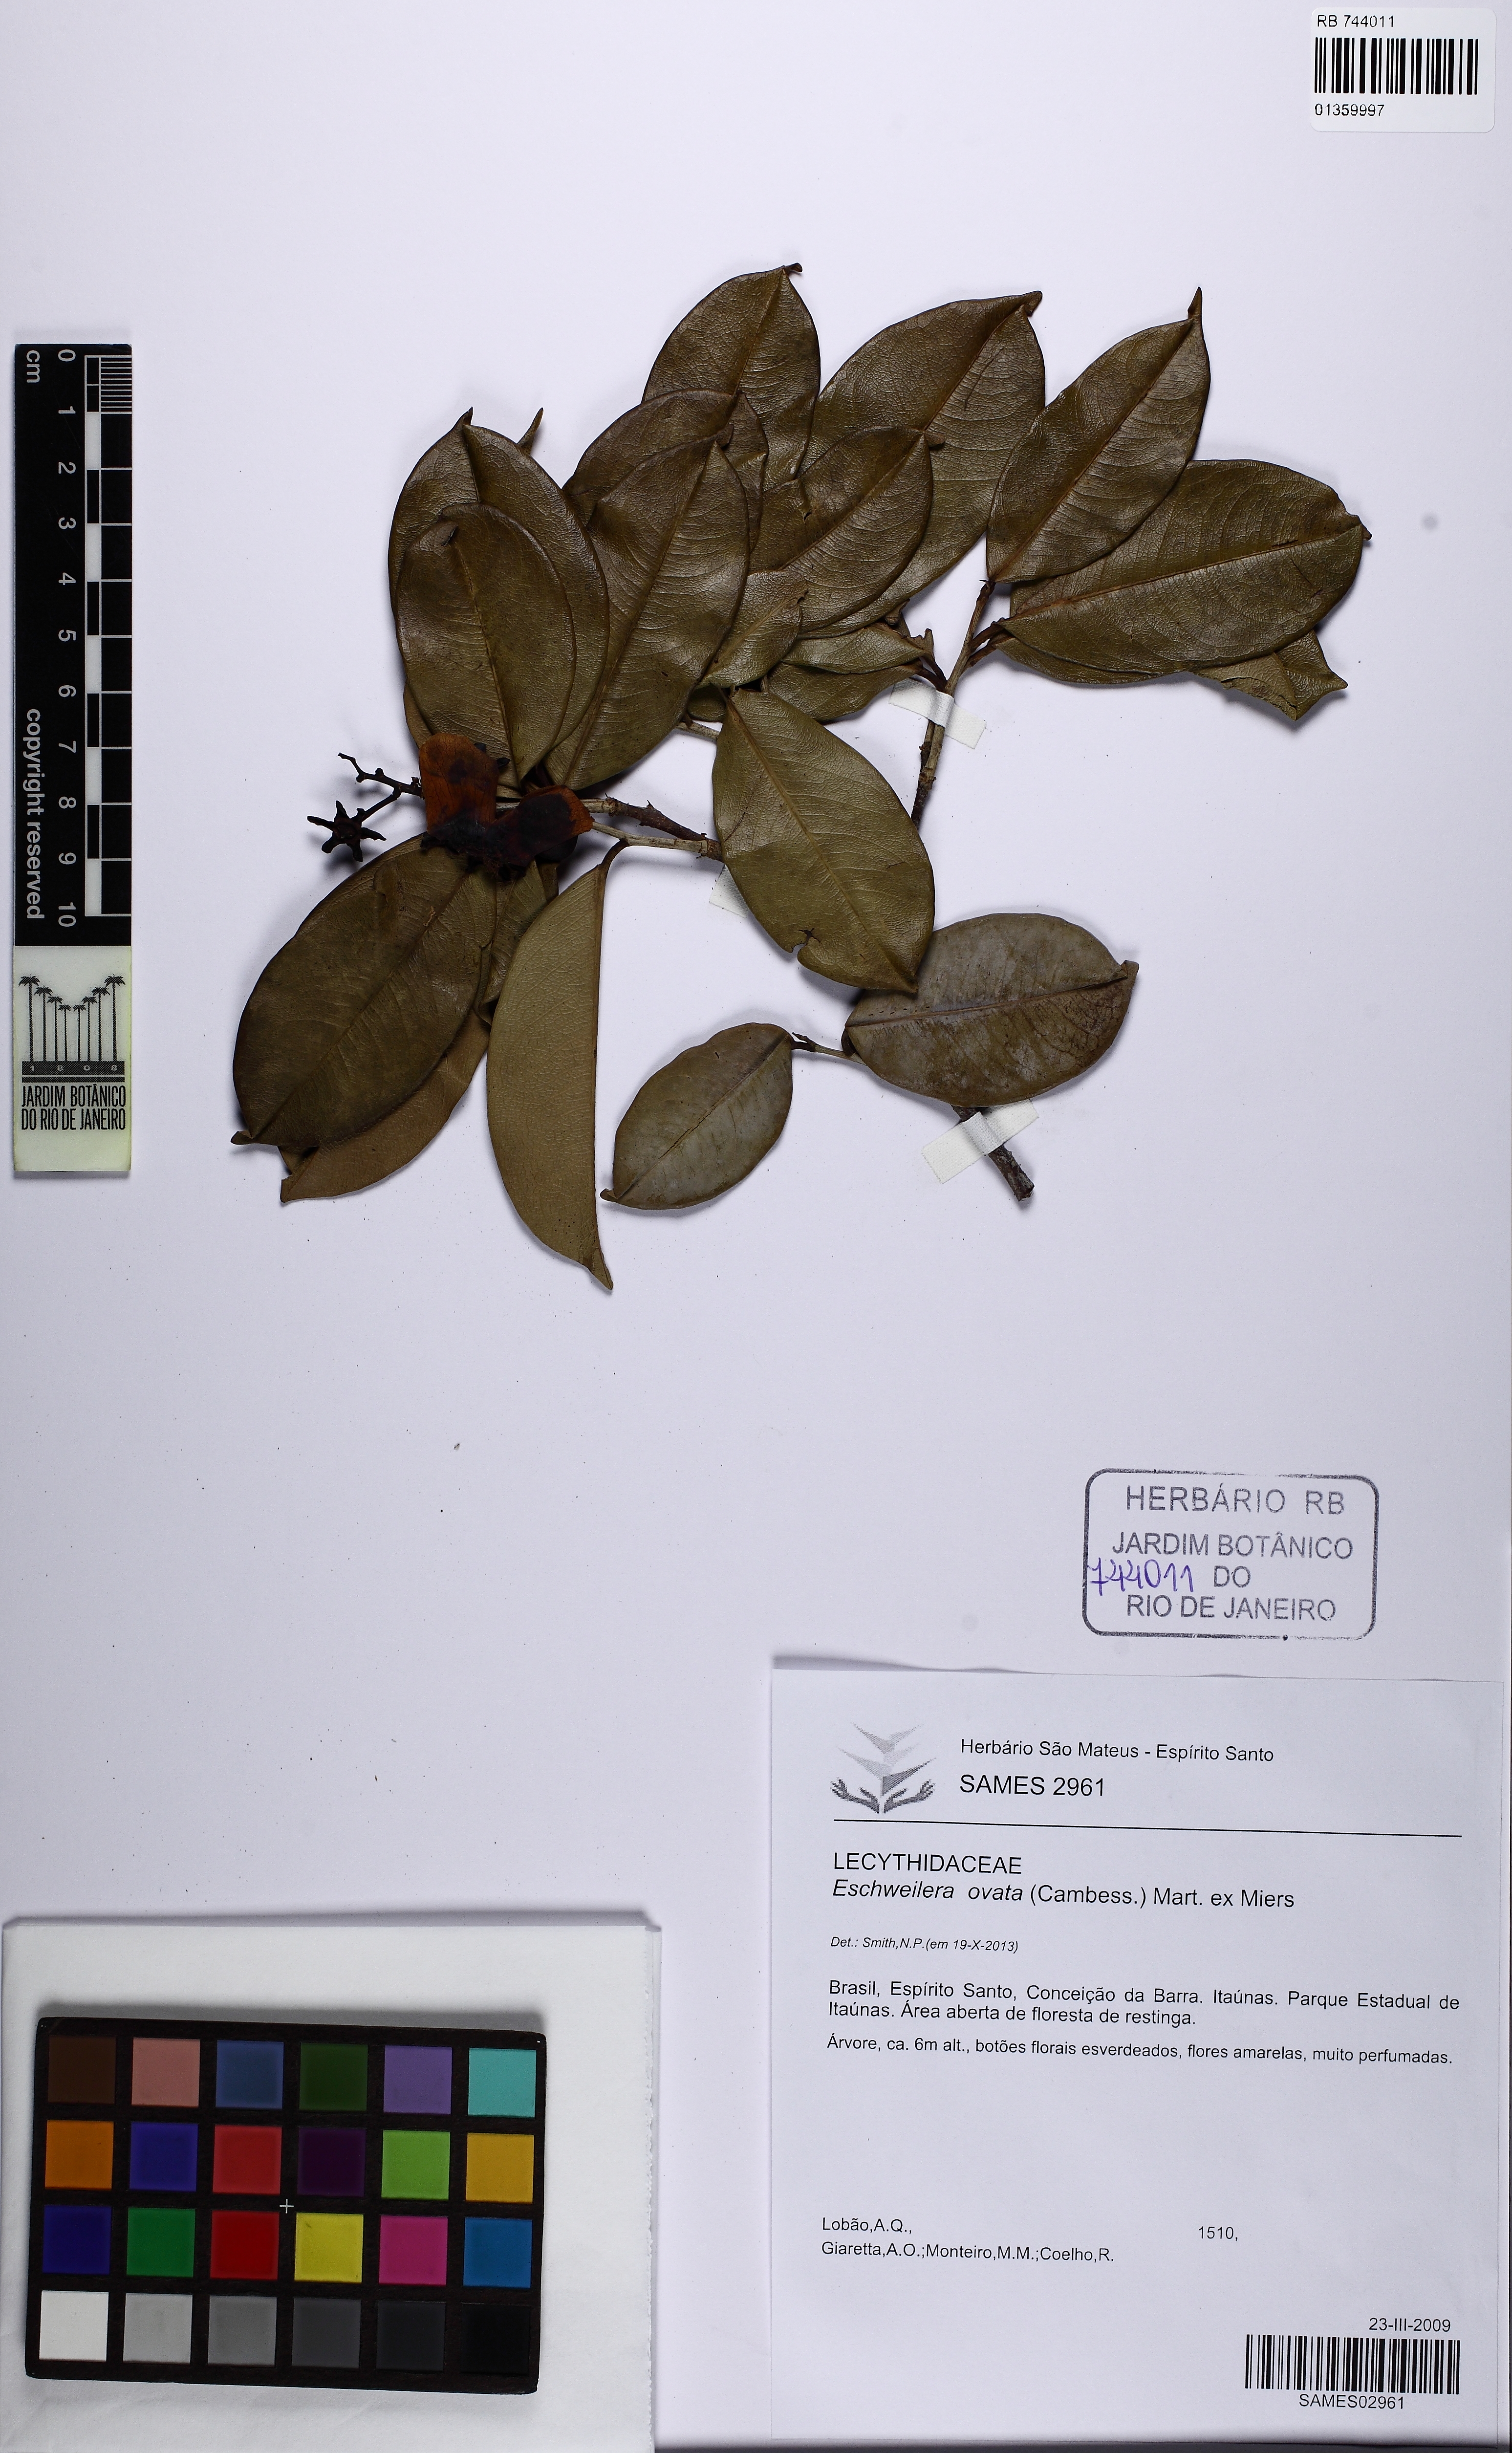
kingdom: Plantae
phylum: Tracheophyta
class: Magnoliopsida
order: Ericales
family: Lecythidaceae
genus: Eschweilera
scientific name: Eschweilera ovata
